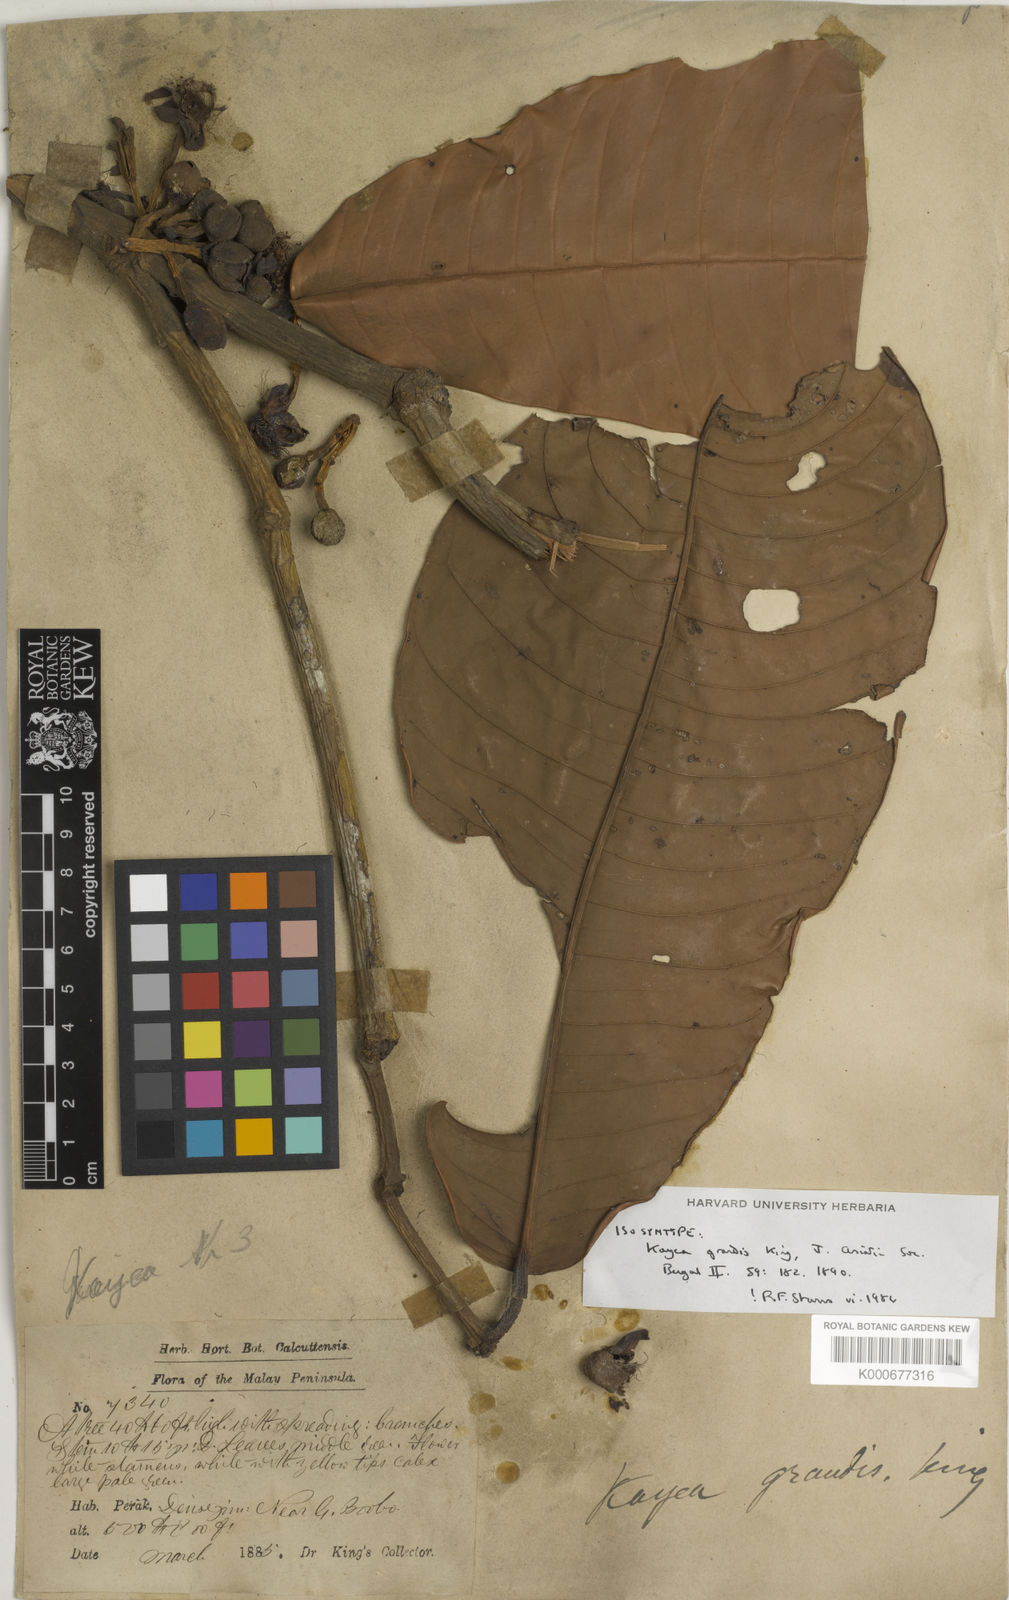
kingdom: Plantae
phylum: Tracheophyta
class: Magnoliopsida
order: Malpighiales
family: Calophyllaceae
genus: Kayea
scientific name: Kayea grandis
